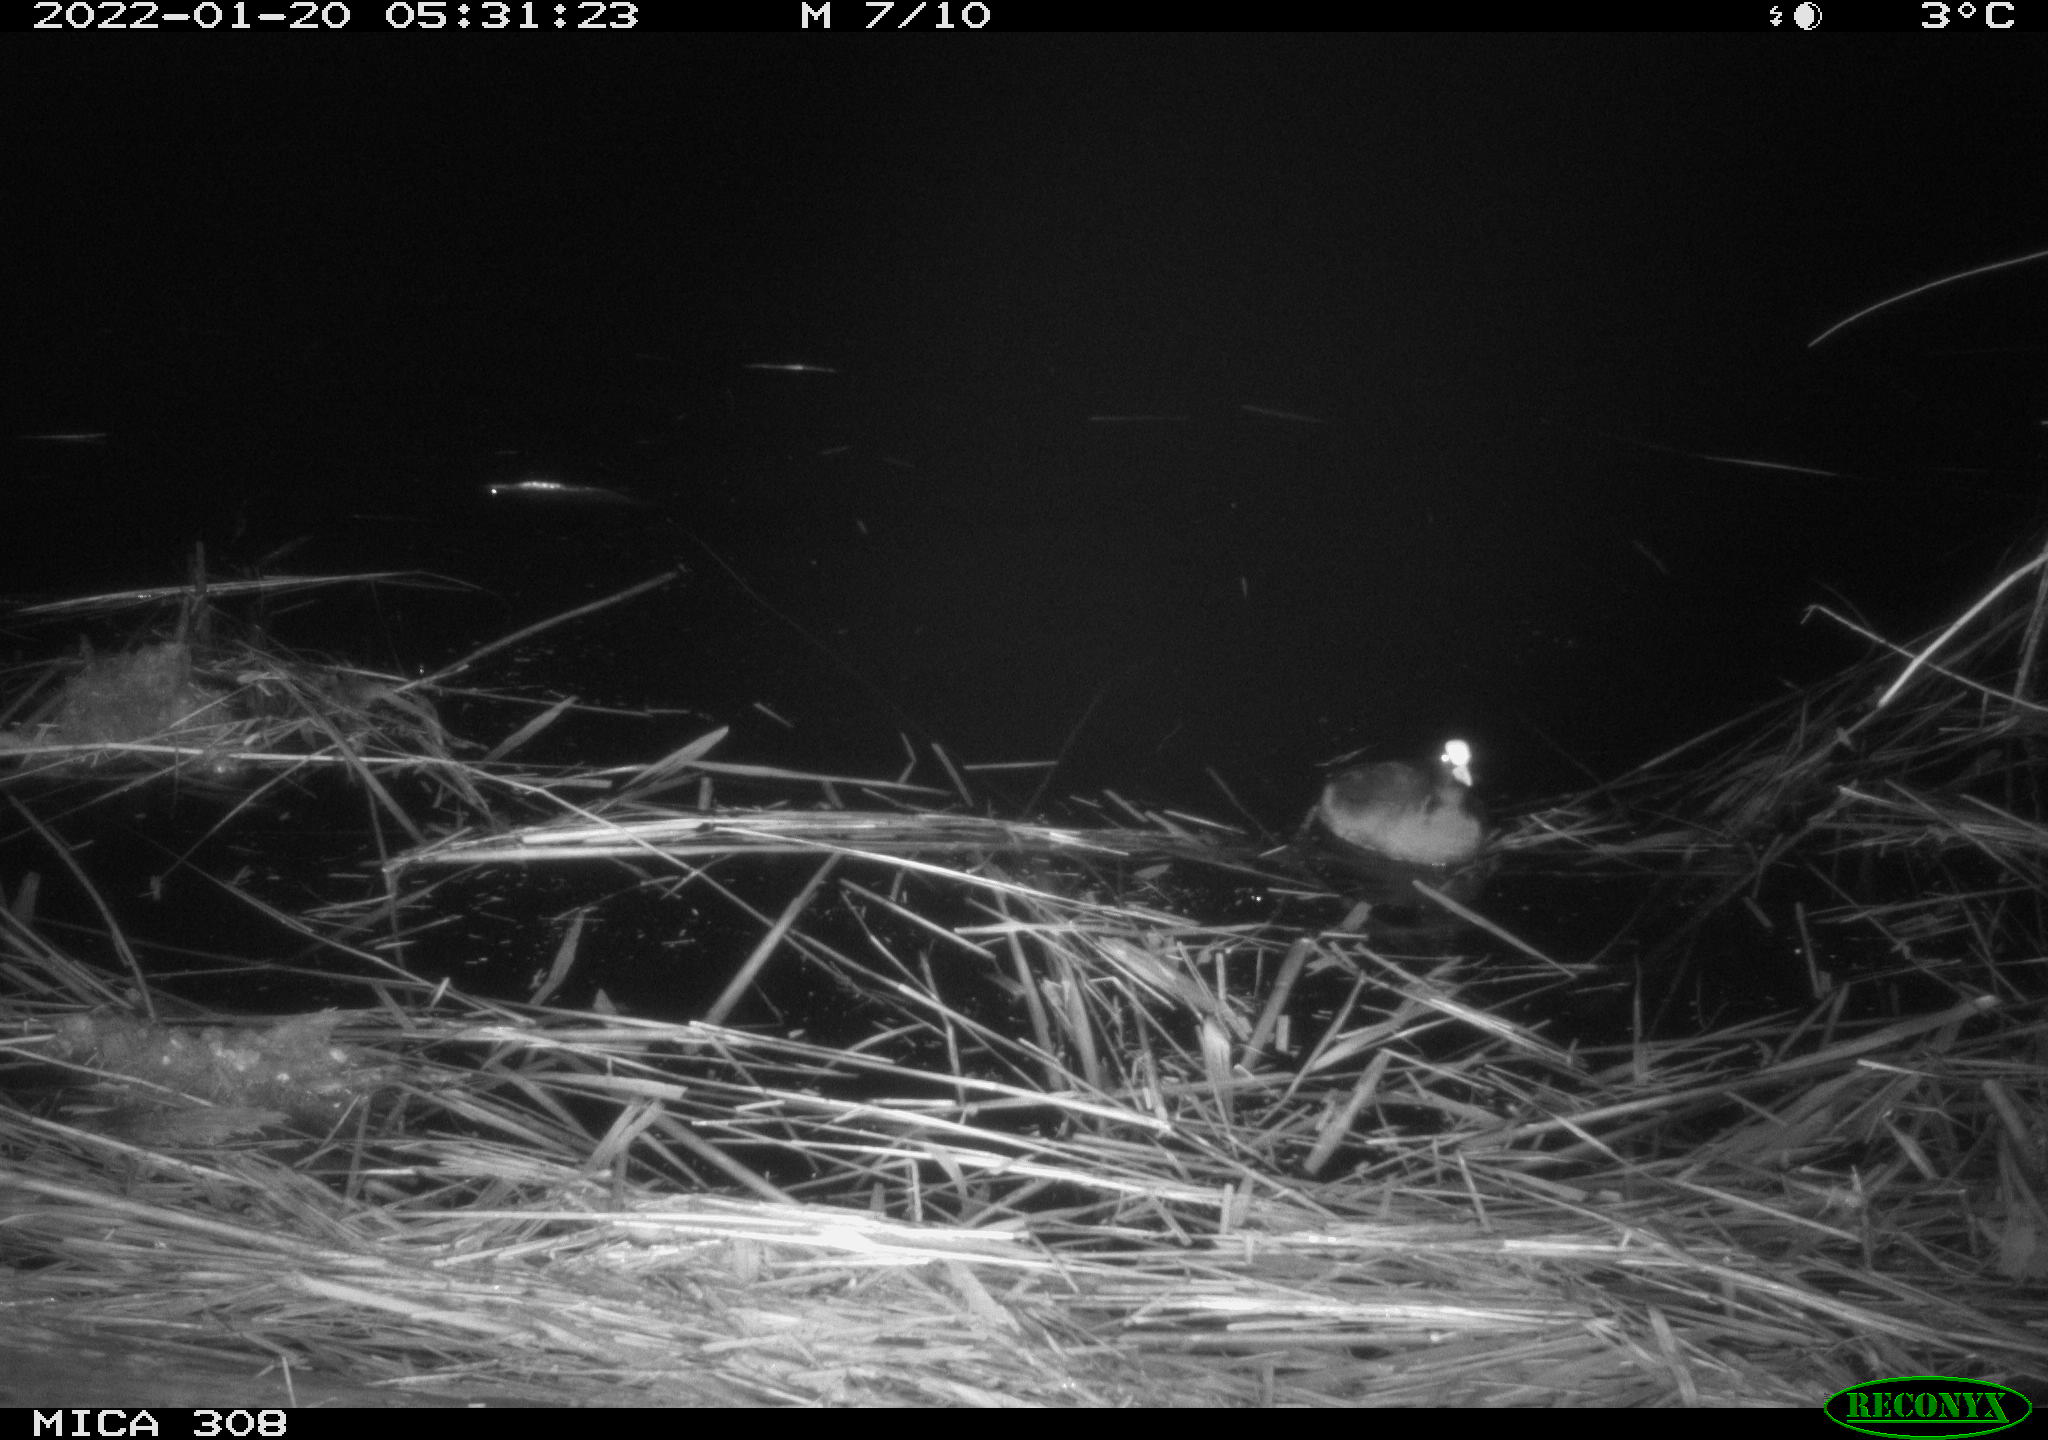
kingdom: Animalia
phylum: Chordata
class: Aves
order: Anseriformes
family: Anatidae
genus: Anas
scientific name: Anas
